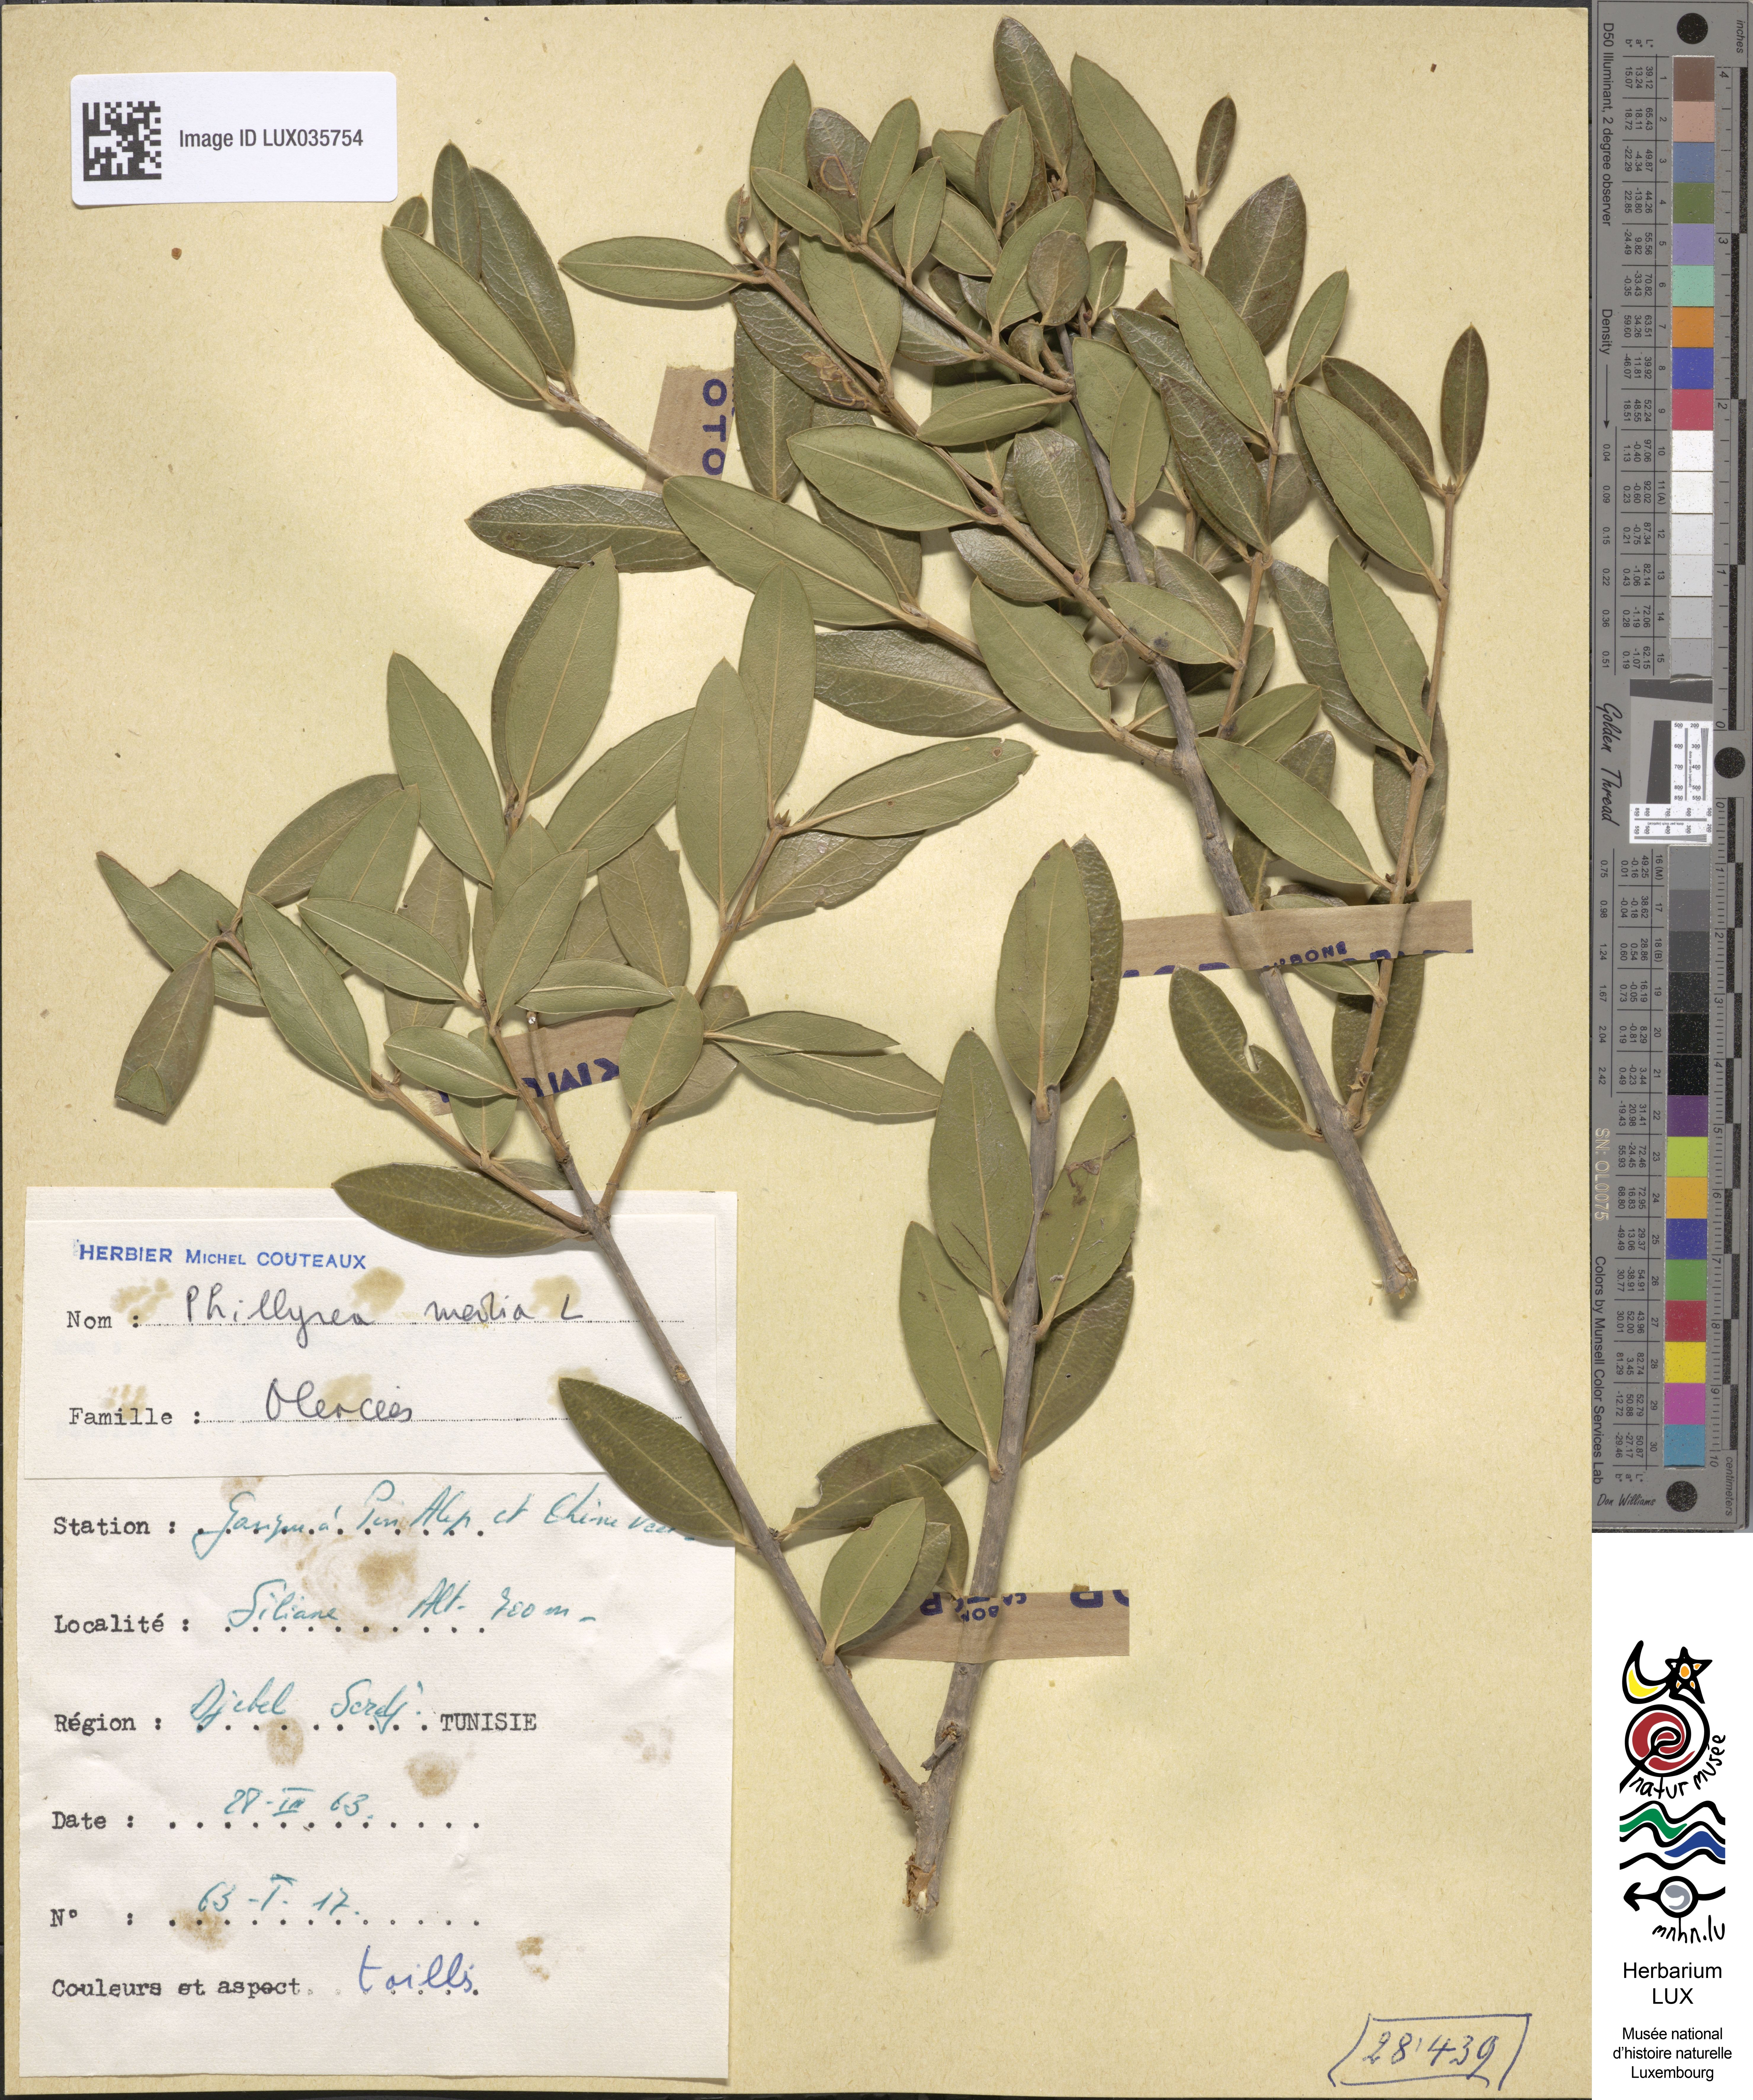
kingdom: Plantae
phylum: Tracheophyta
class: Magnoliopsida
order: Lamiales
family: Oleaceae
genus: Phillyrea
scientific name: Phillyrea latifolia
